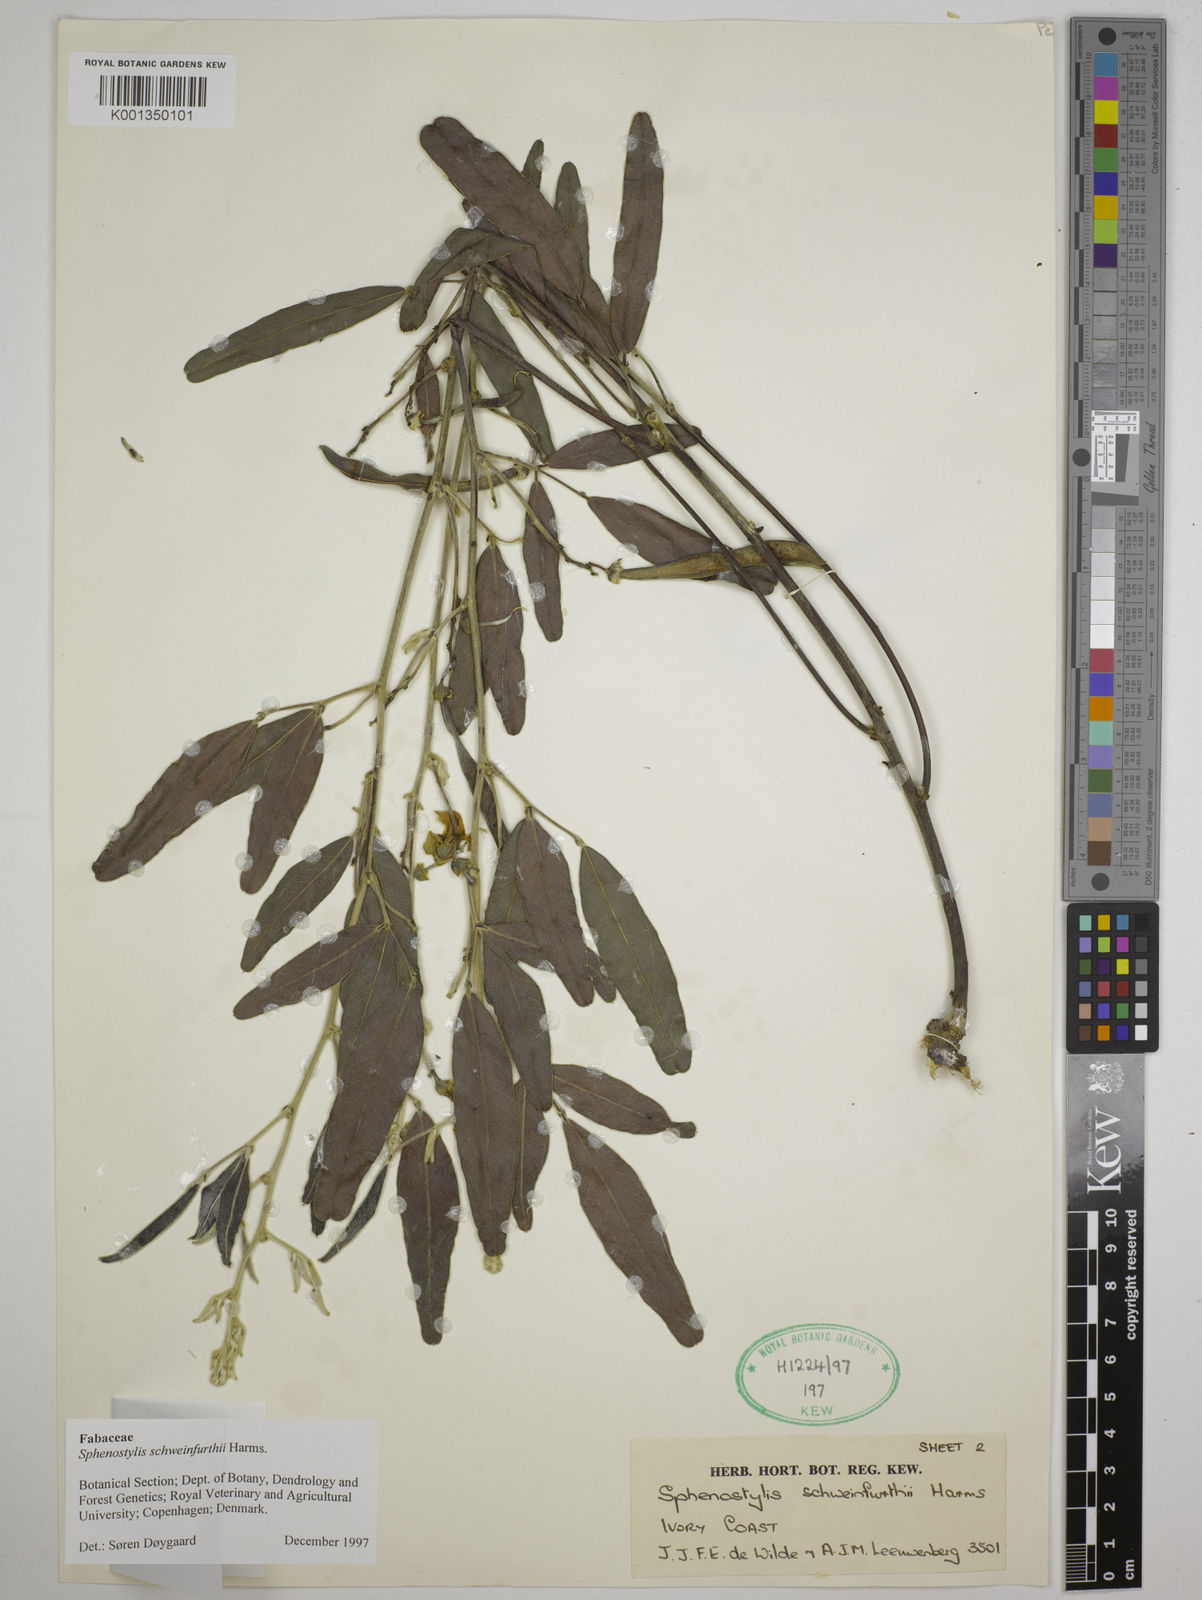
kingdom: Plantae
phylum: Tracheophyta
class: Magnoliopsida
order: Fabales
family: Fabaceae
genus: Sphenostylis
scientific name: Sphenostylis schweinfurthii
